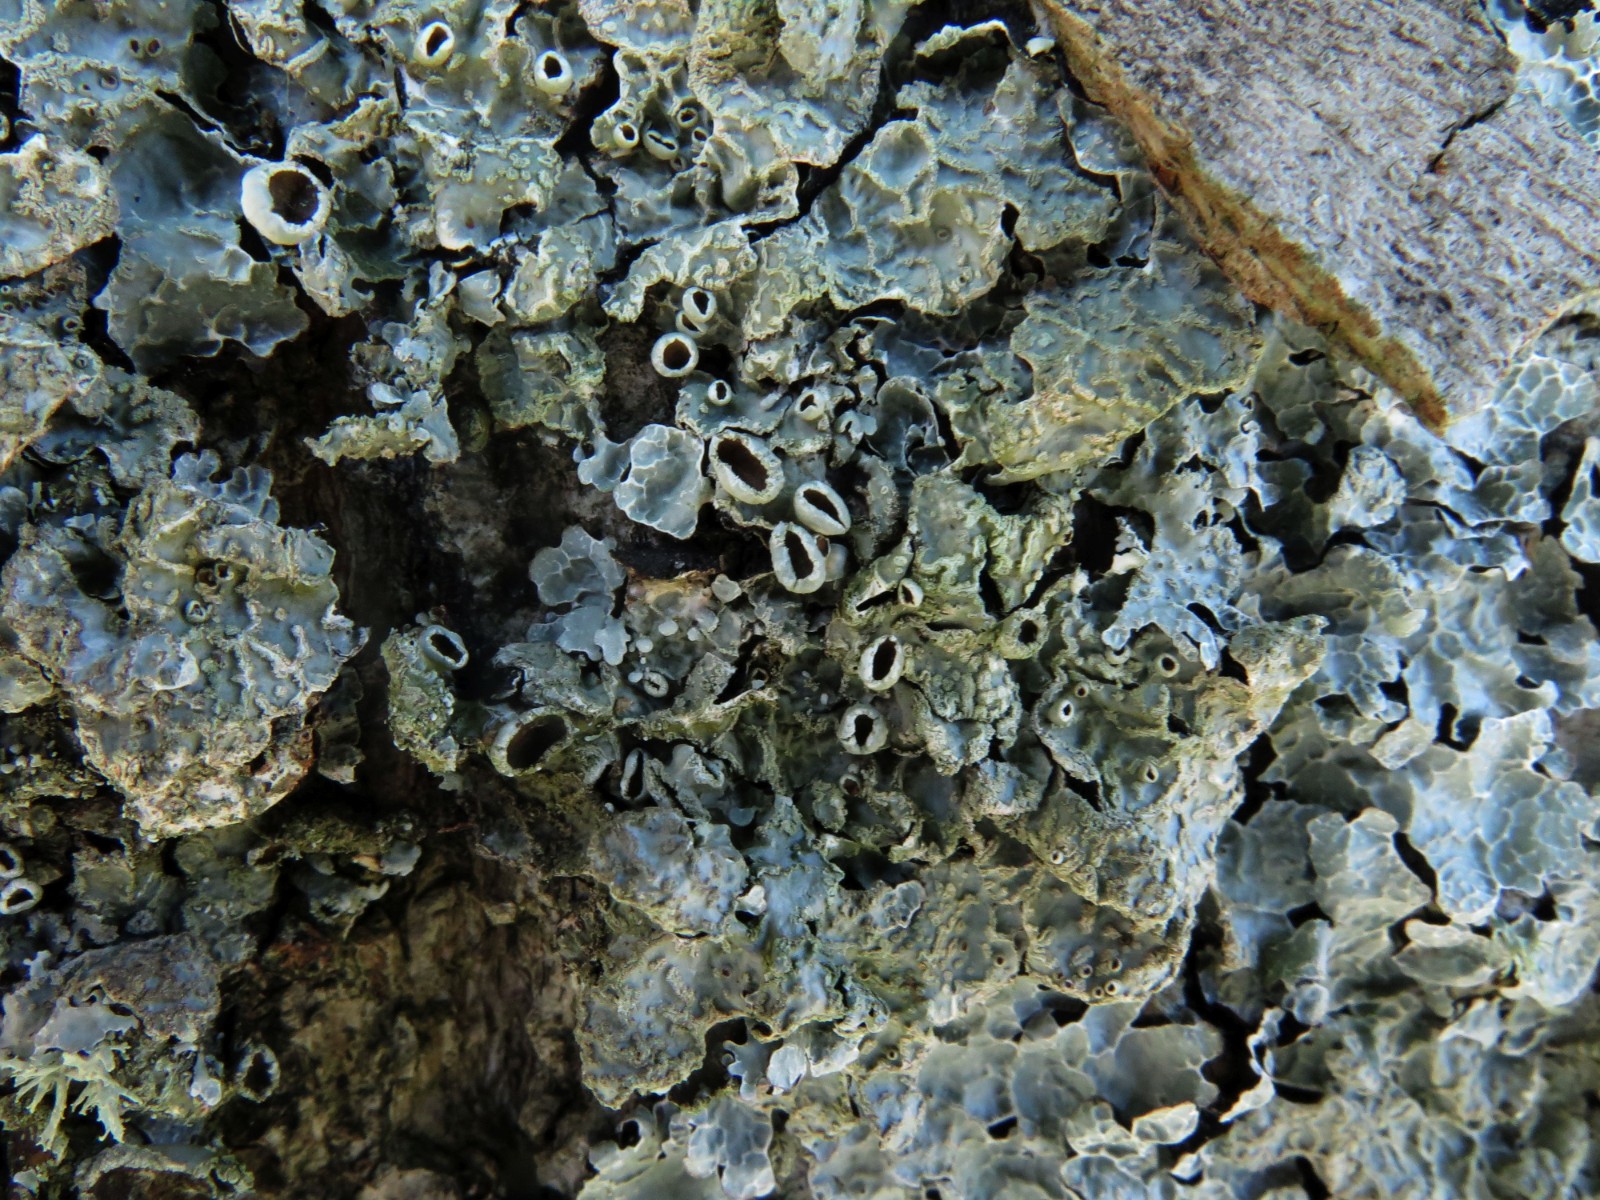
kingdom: Fungi
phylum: Ascomycota
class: Lecanoromycetes
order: Lecanorales
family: Parmeliaceae
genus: Parmelia
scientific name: Parmelia sulcata
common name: rynket skållav
